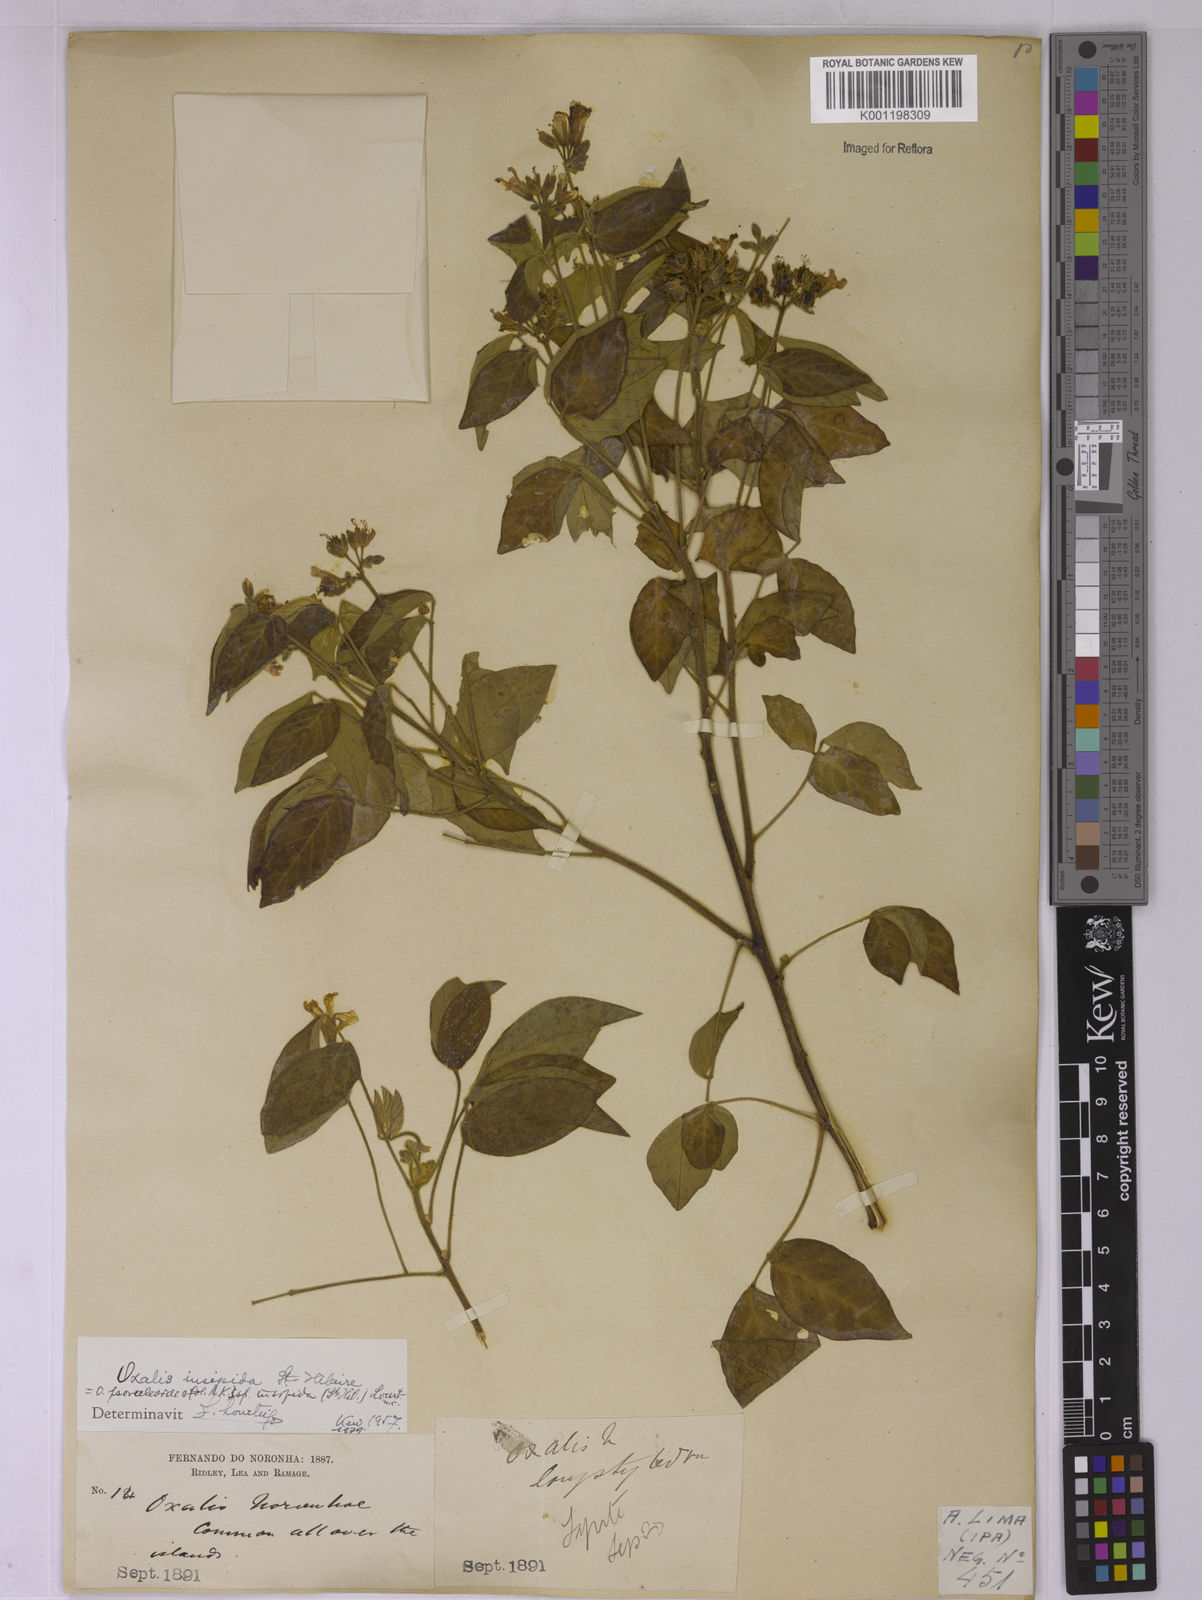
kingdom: Plantae
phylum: Tracheophyta
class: Magnoliopsida
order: Oxalidales
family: Oxalidaceae
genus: Oxalis
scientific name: Oxalis psoraleoides
